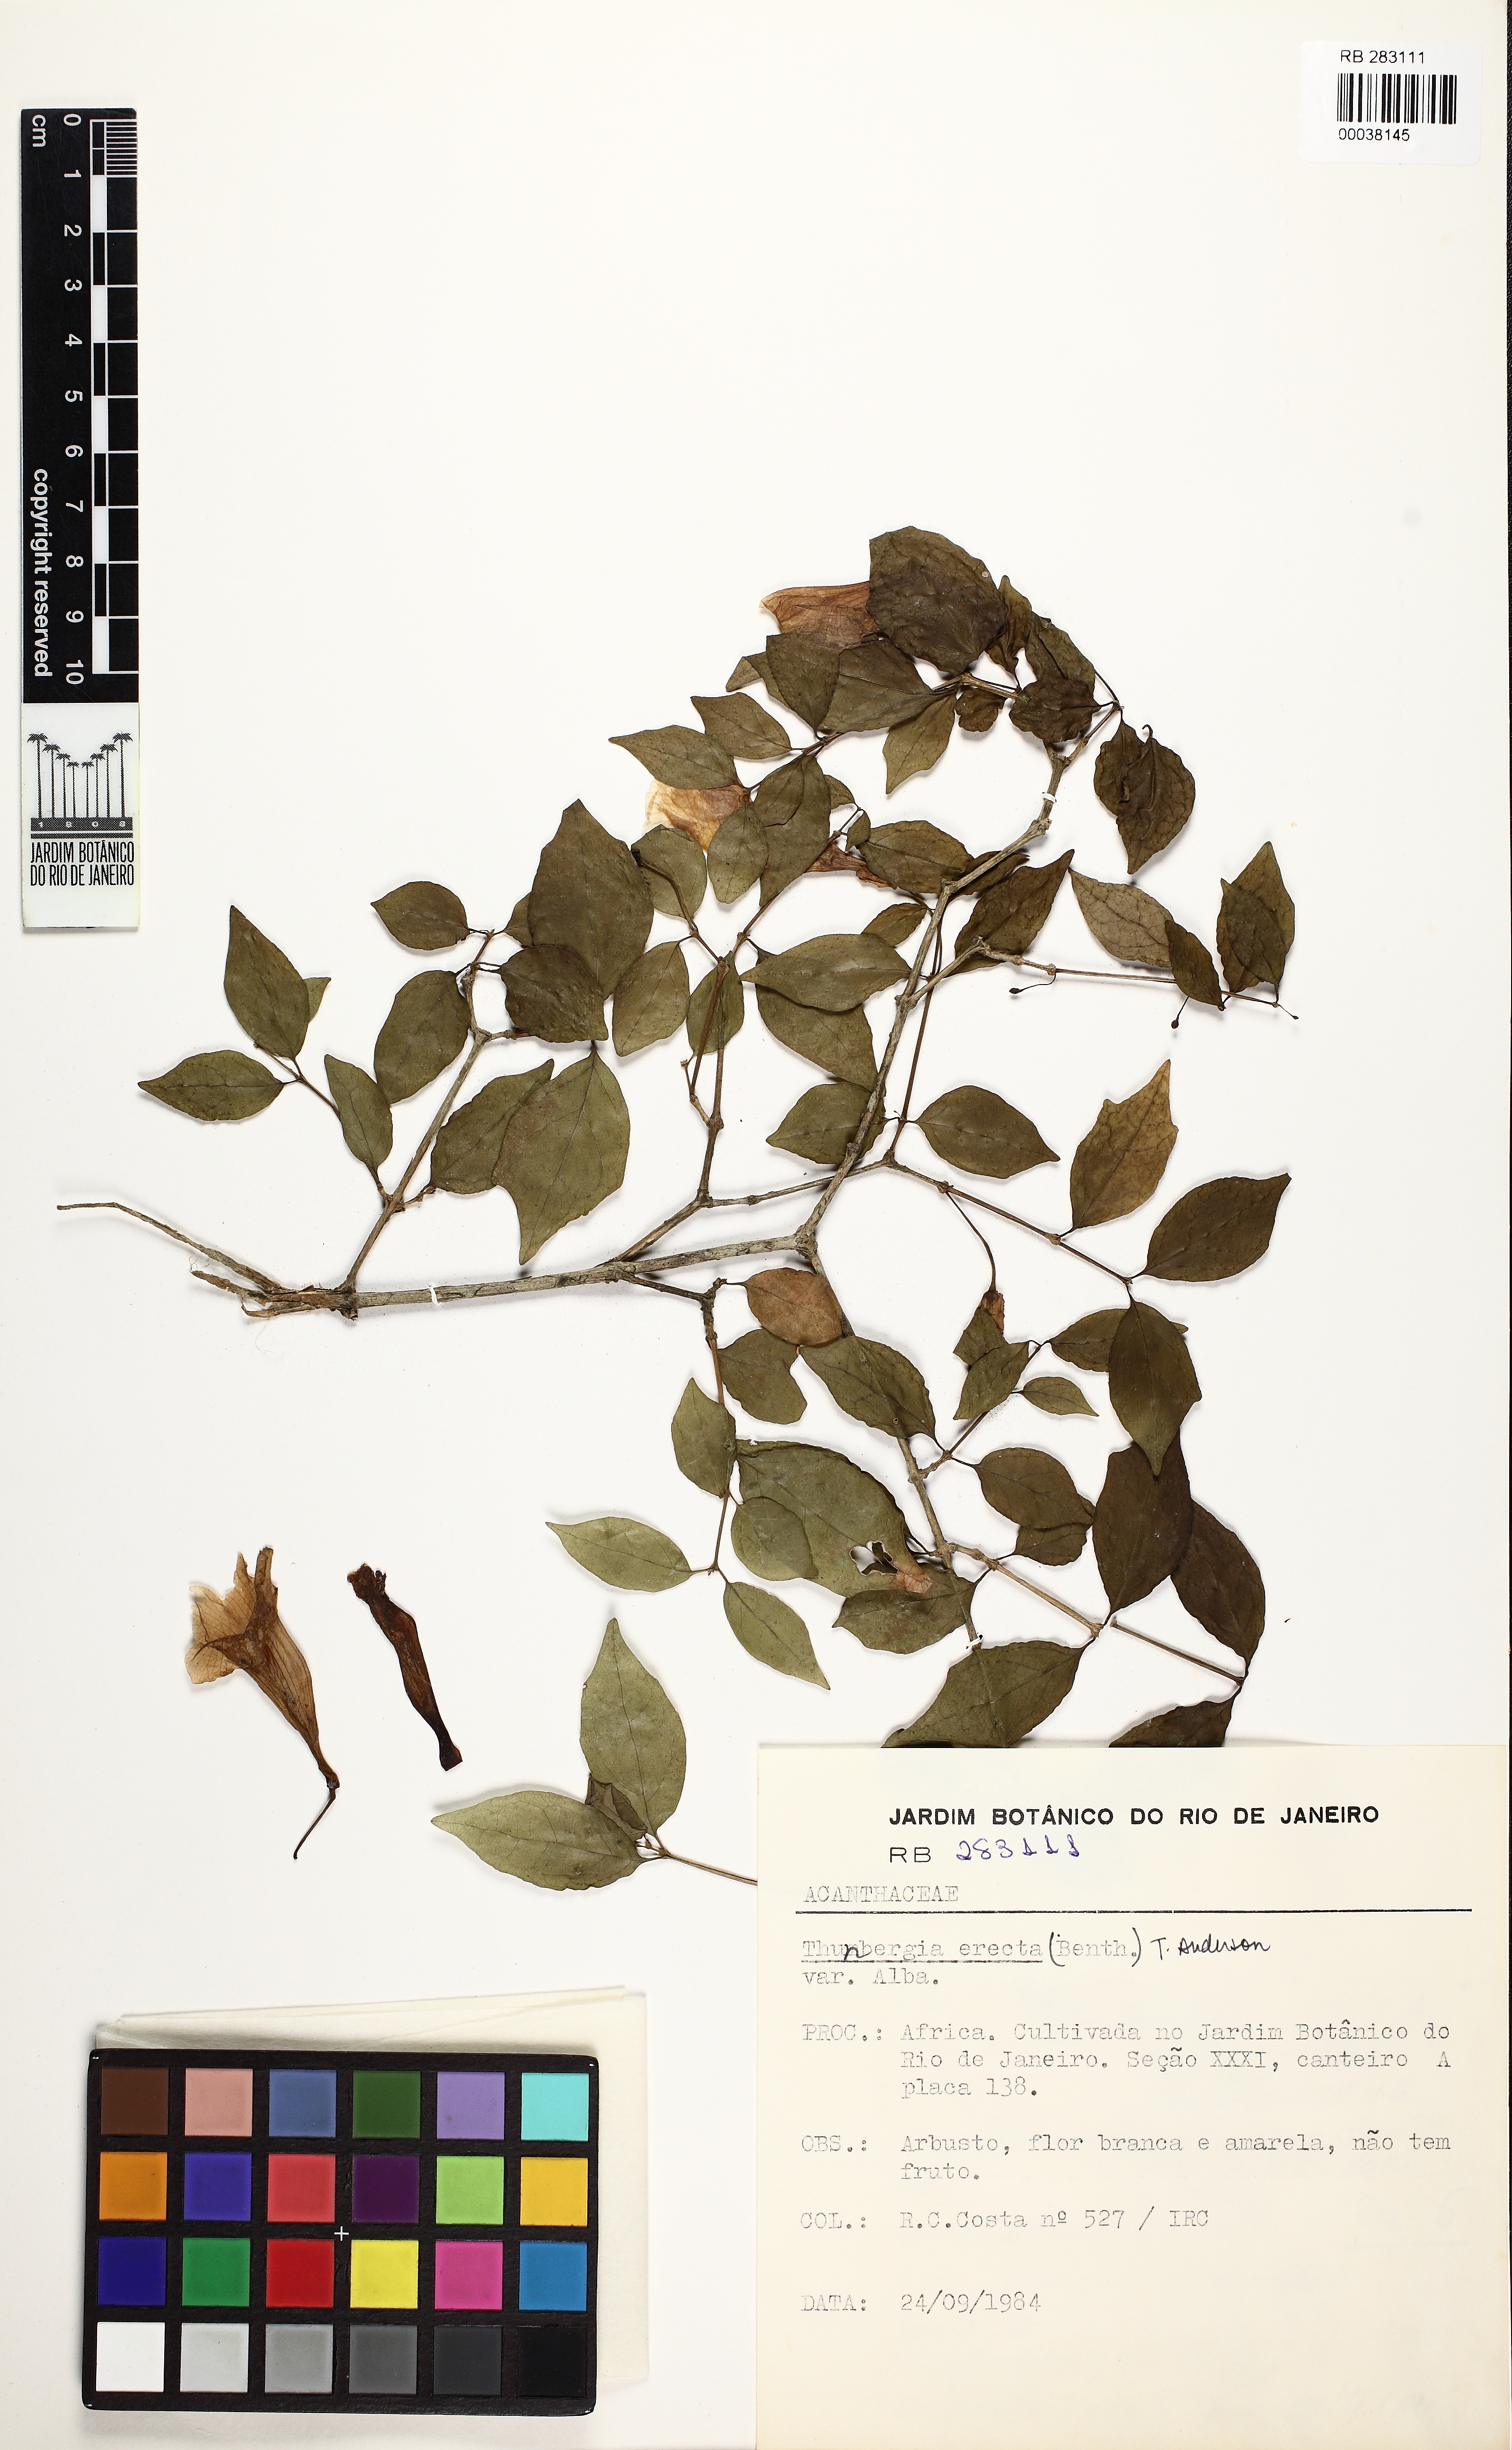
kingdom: Plantae
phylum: Tracheophyta
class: Magnoliopsida
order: Lamiales
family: Acanthaceae
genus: Thunbergia
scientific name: Thunbergia erecta
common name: Bush clockvine
